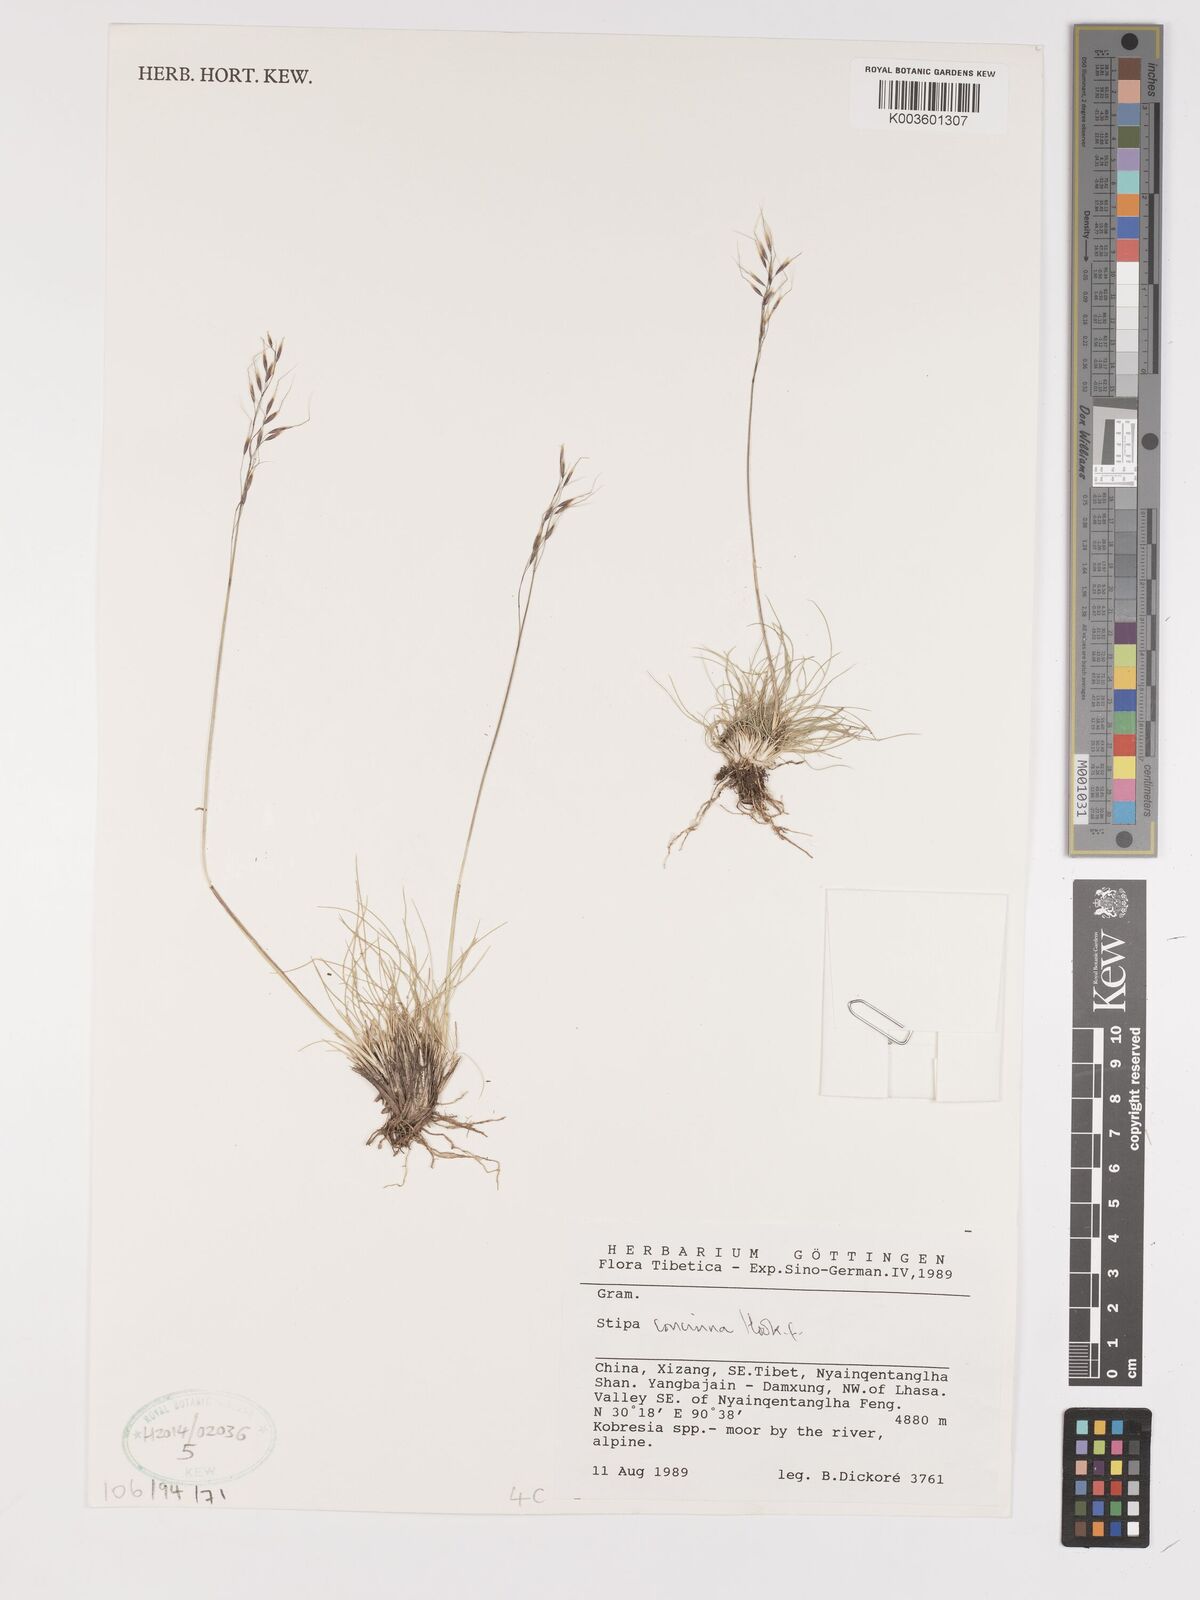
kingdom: Plantae
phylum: Tracheophyta
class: Liliopsida
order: Poales
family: Poaceae
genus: Ptilagrostis
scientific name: Ptilagrostis concinna
